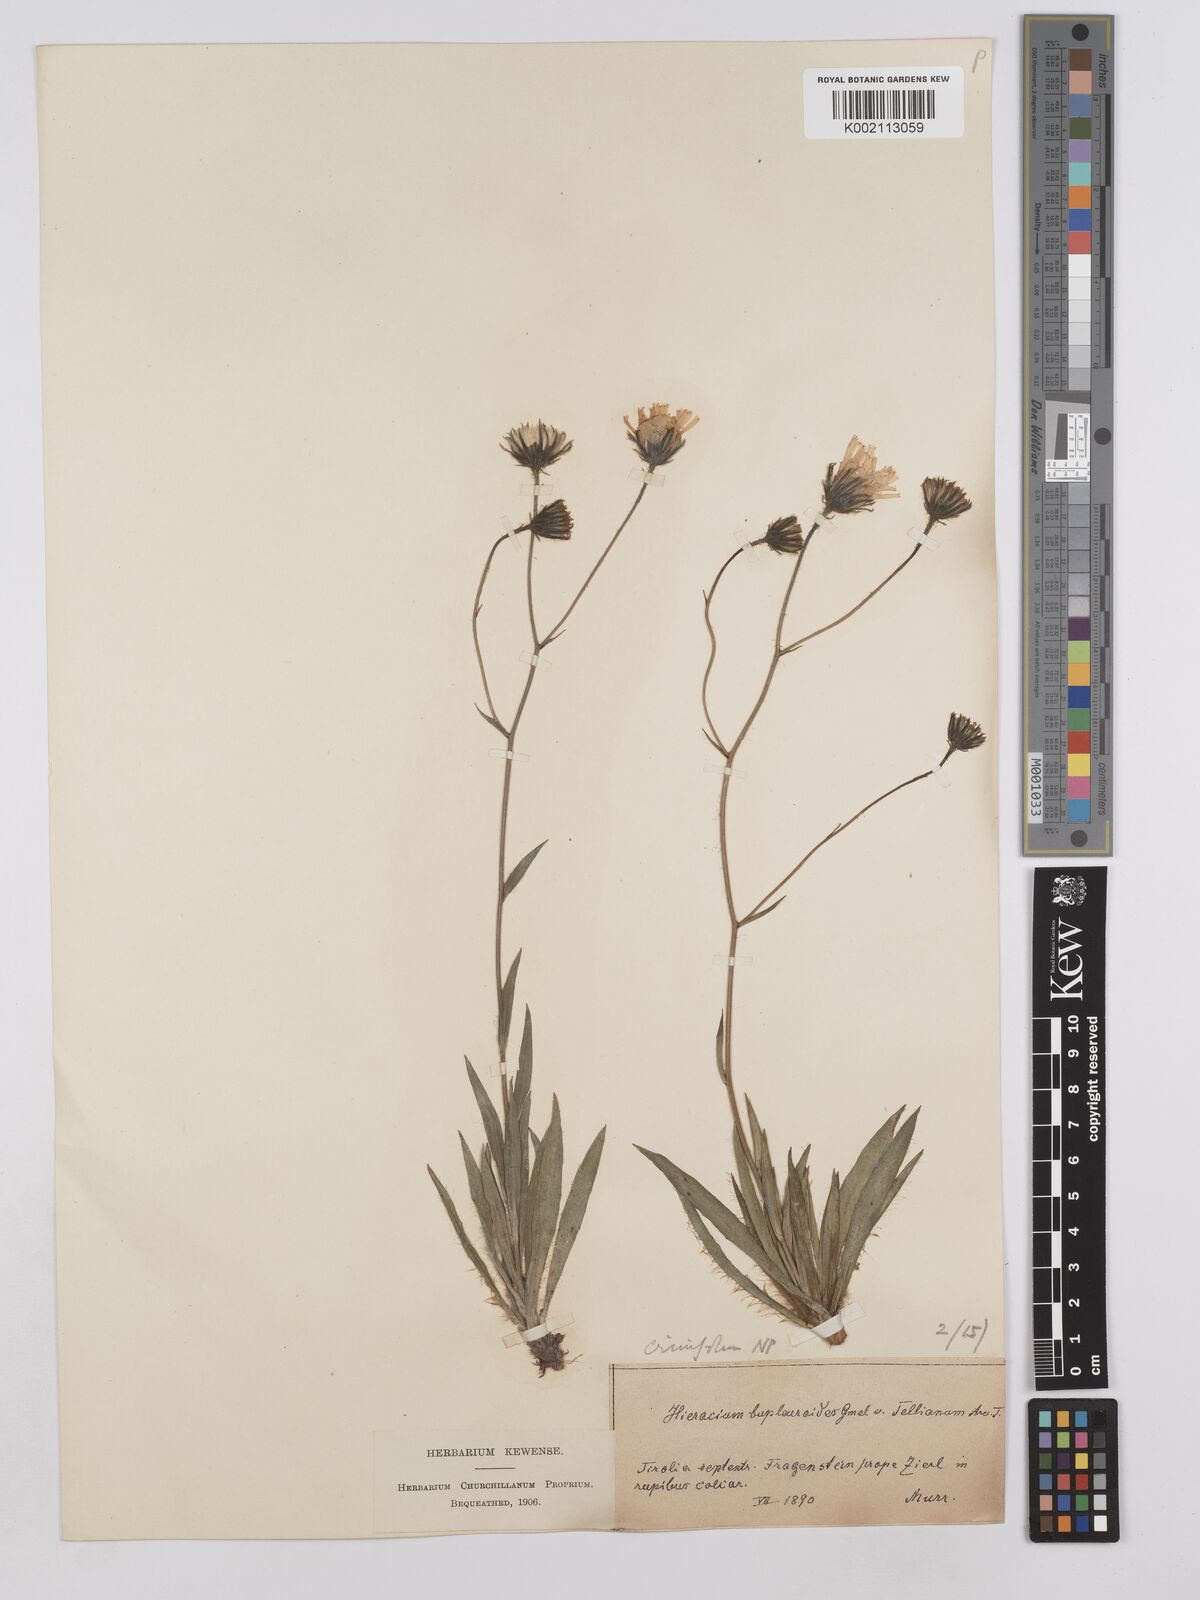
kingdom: Plantae
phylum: Tracheophyta
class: Magnoliopsida
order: Asterales
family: Asteraceae
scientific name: Asteraceae
